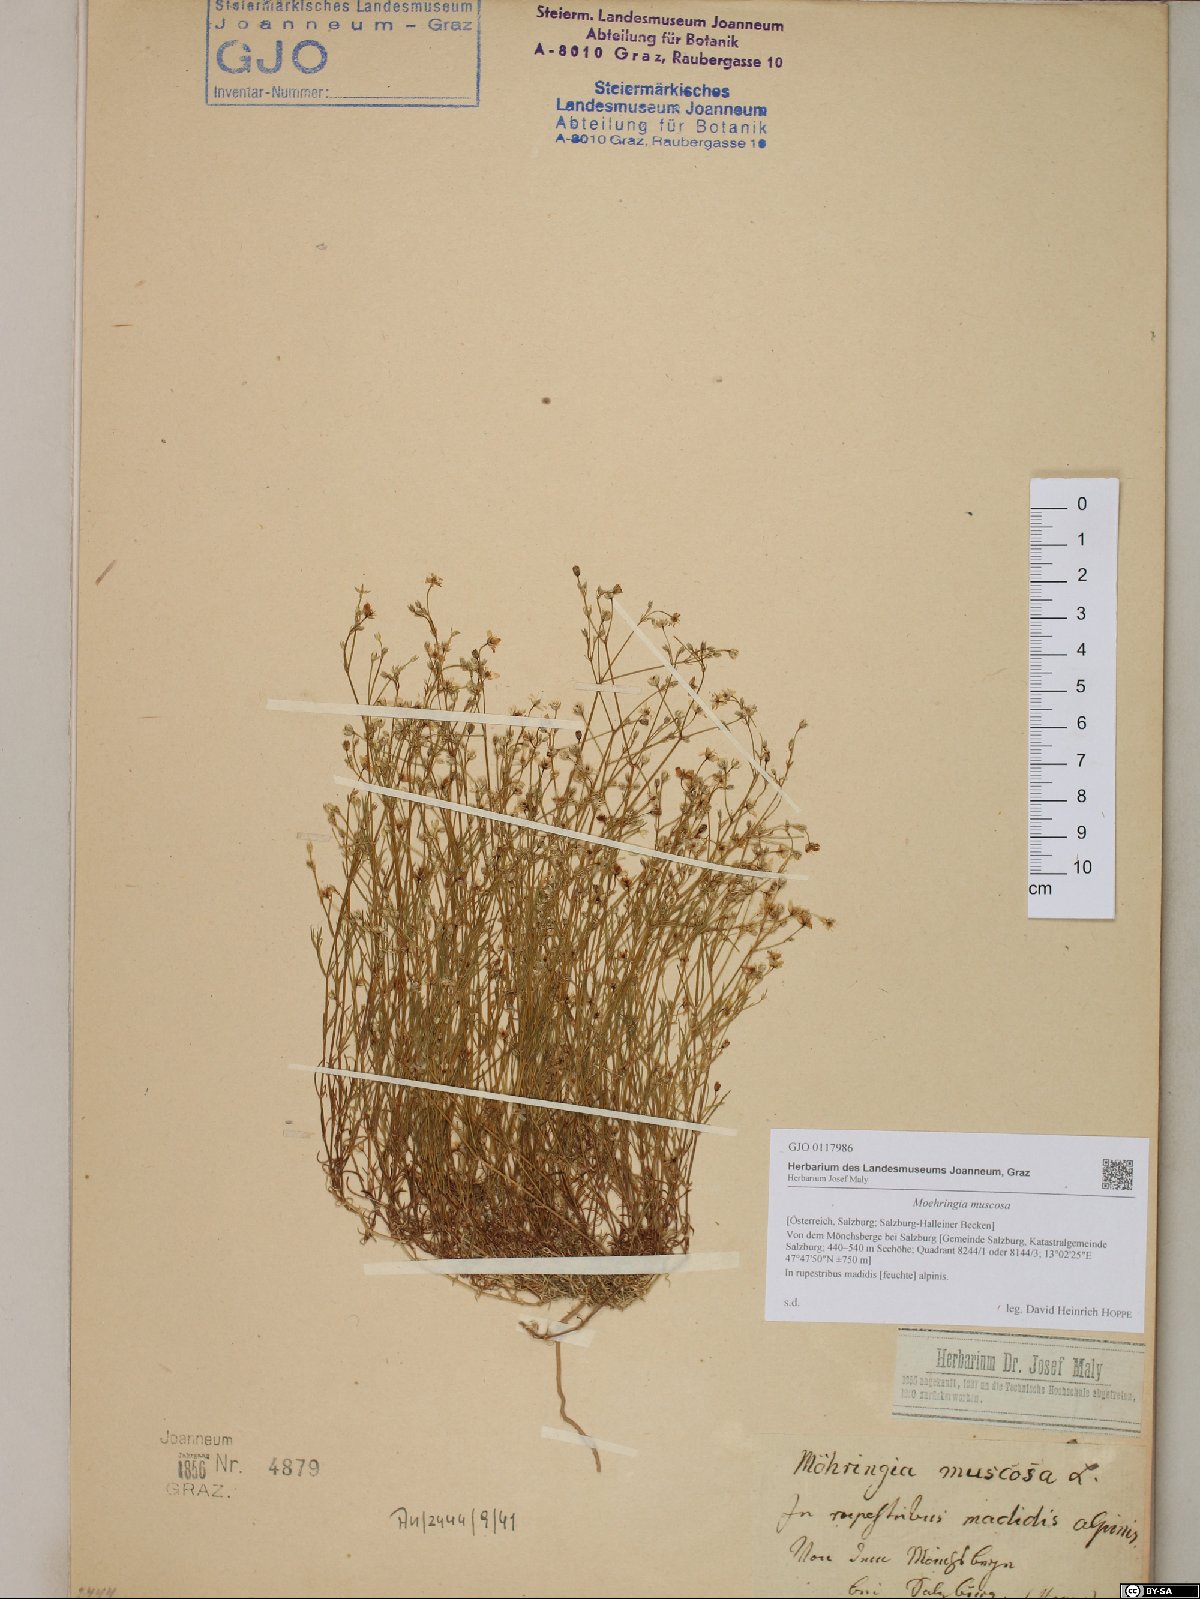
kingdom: Plantae
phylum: Tracheophyta
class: Magnoliopsida
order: Caryophyllales
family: Caryophyllaceae
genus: Moehringia
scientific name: Moehringia muscosa
